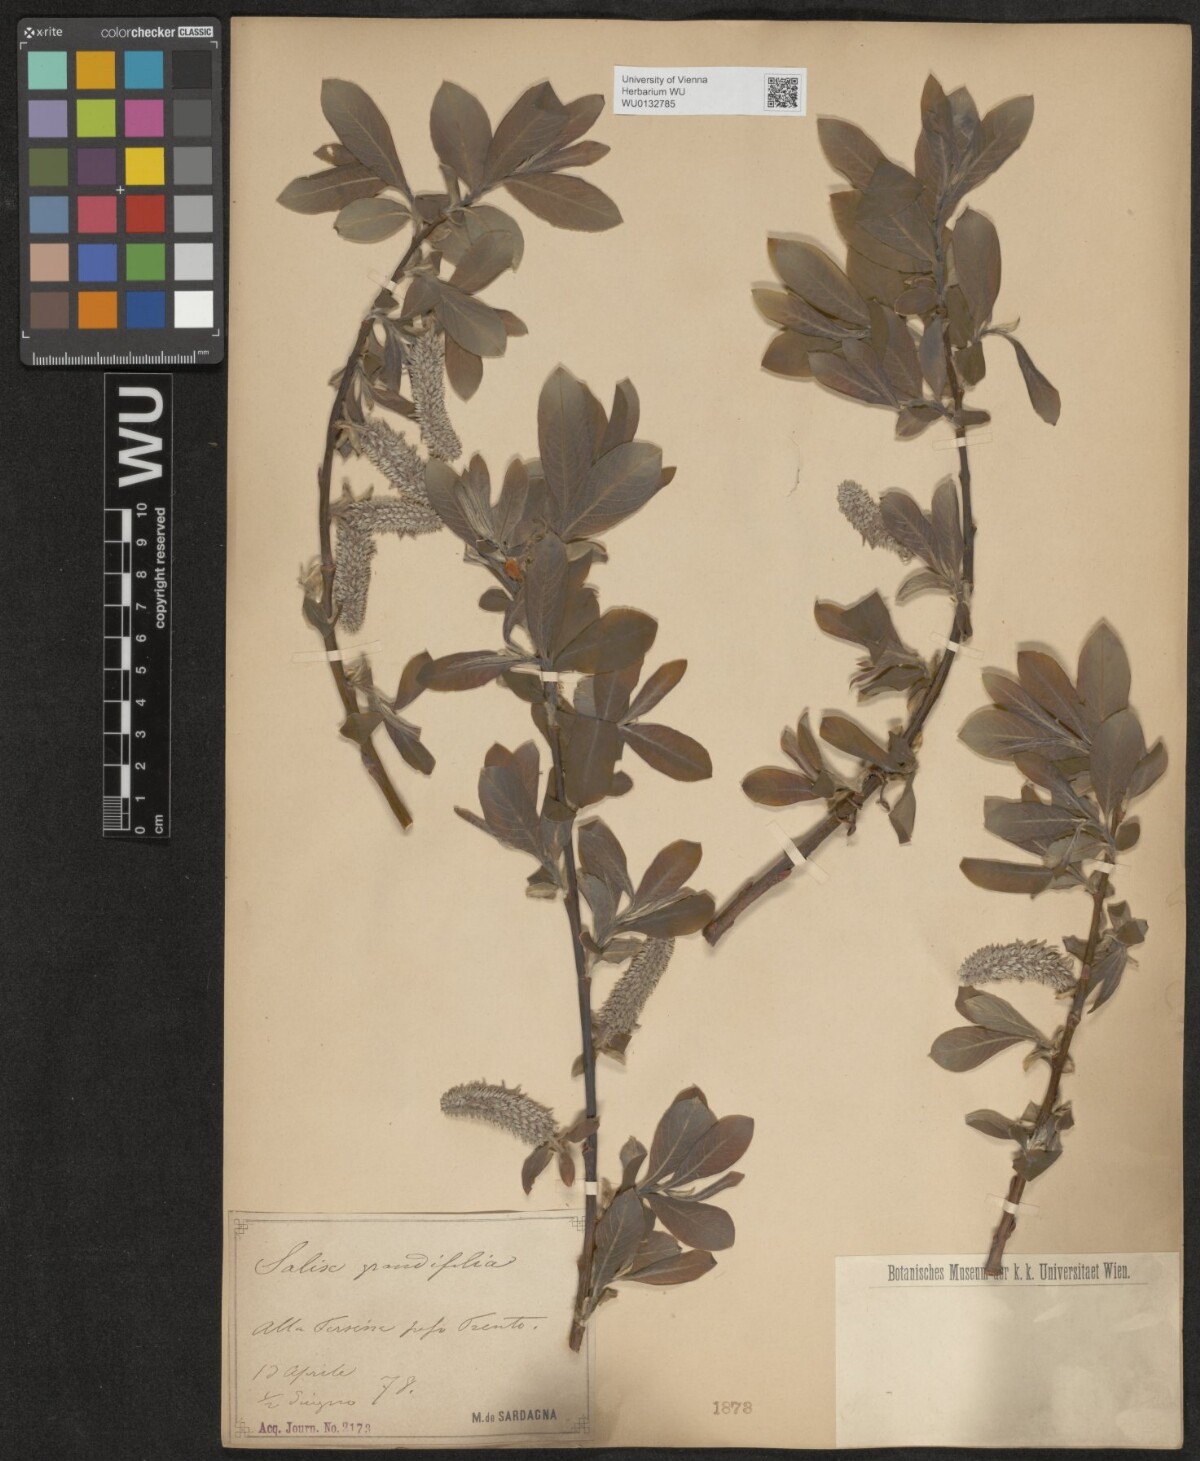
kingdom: Plantae
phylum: Tracheophyta
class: Magnoliopsida
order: Malpighiales
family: Salicaceae
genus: Salix
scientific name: Salix appendiculata
